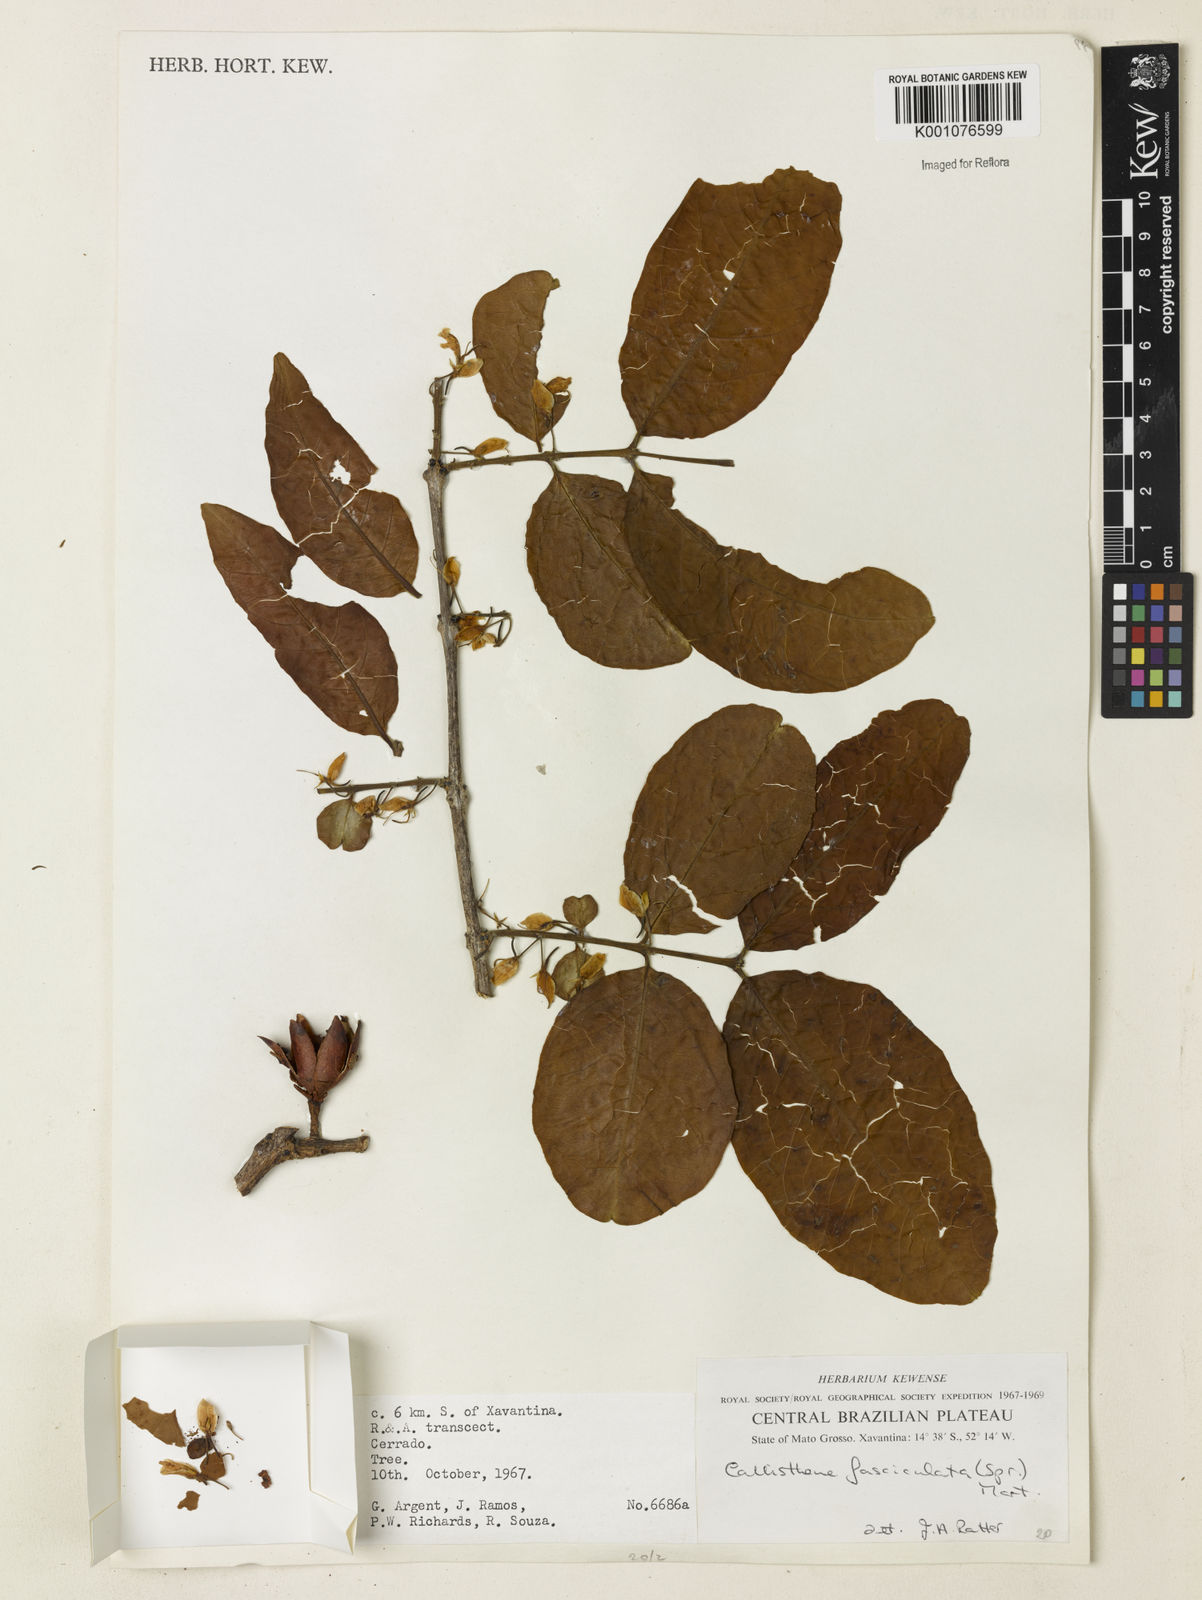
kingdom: Plantae
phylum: Tracheophyta
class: Magnoliopsida
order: Myrtales
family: Vochysiaceae
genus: Callisthene
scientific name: Callisthene fasciculata
